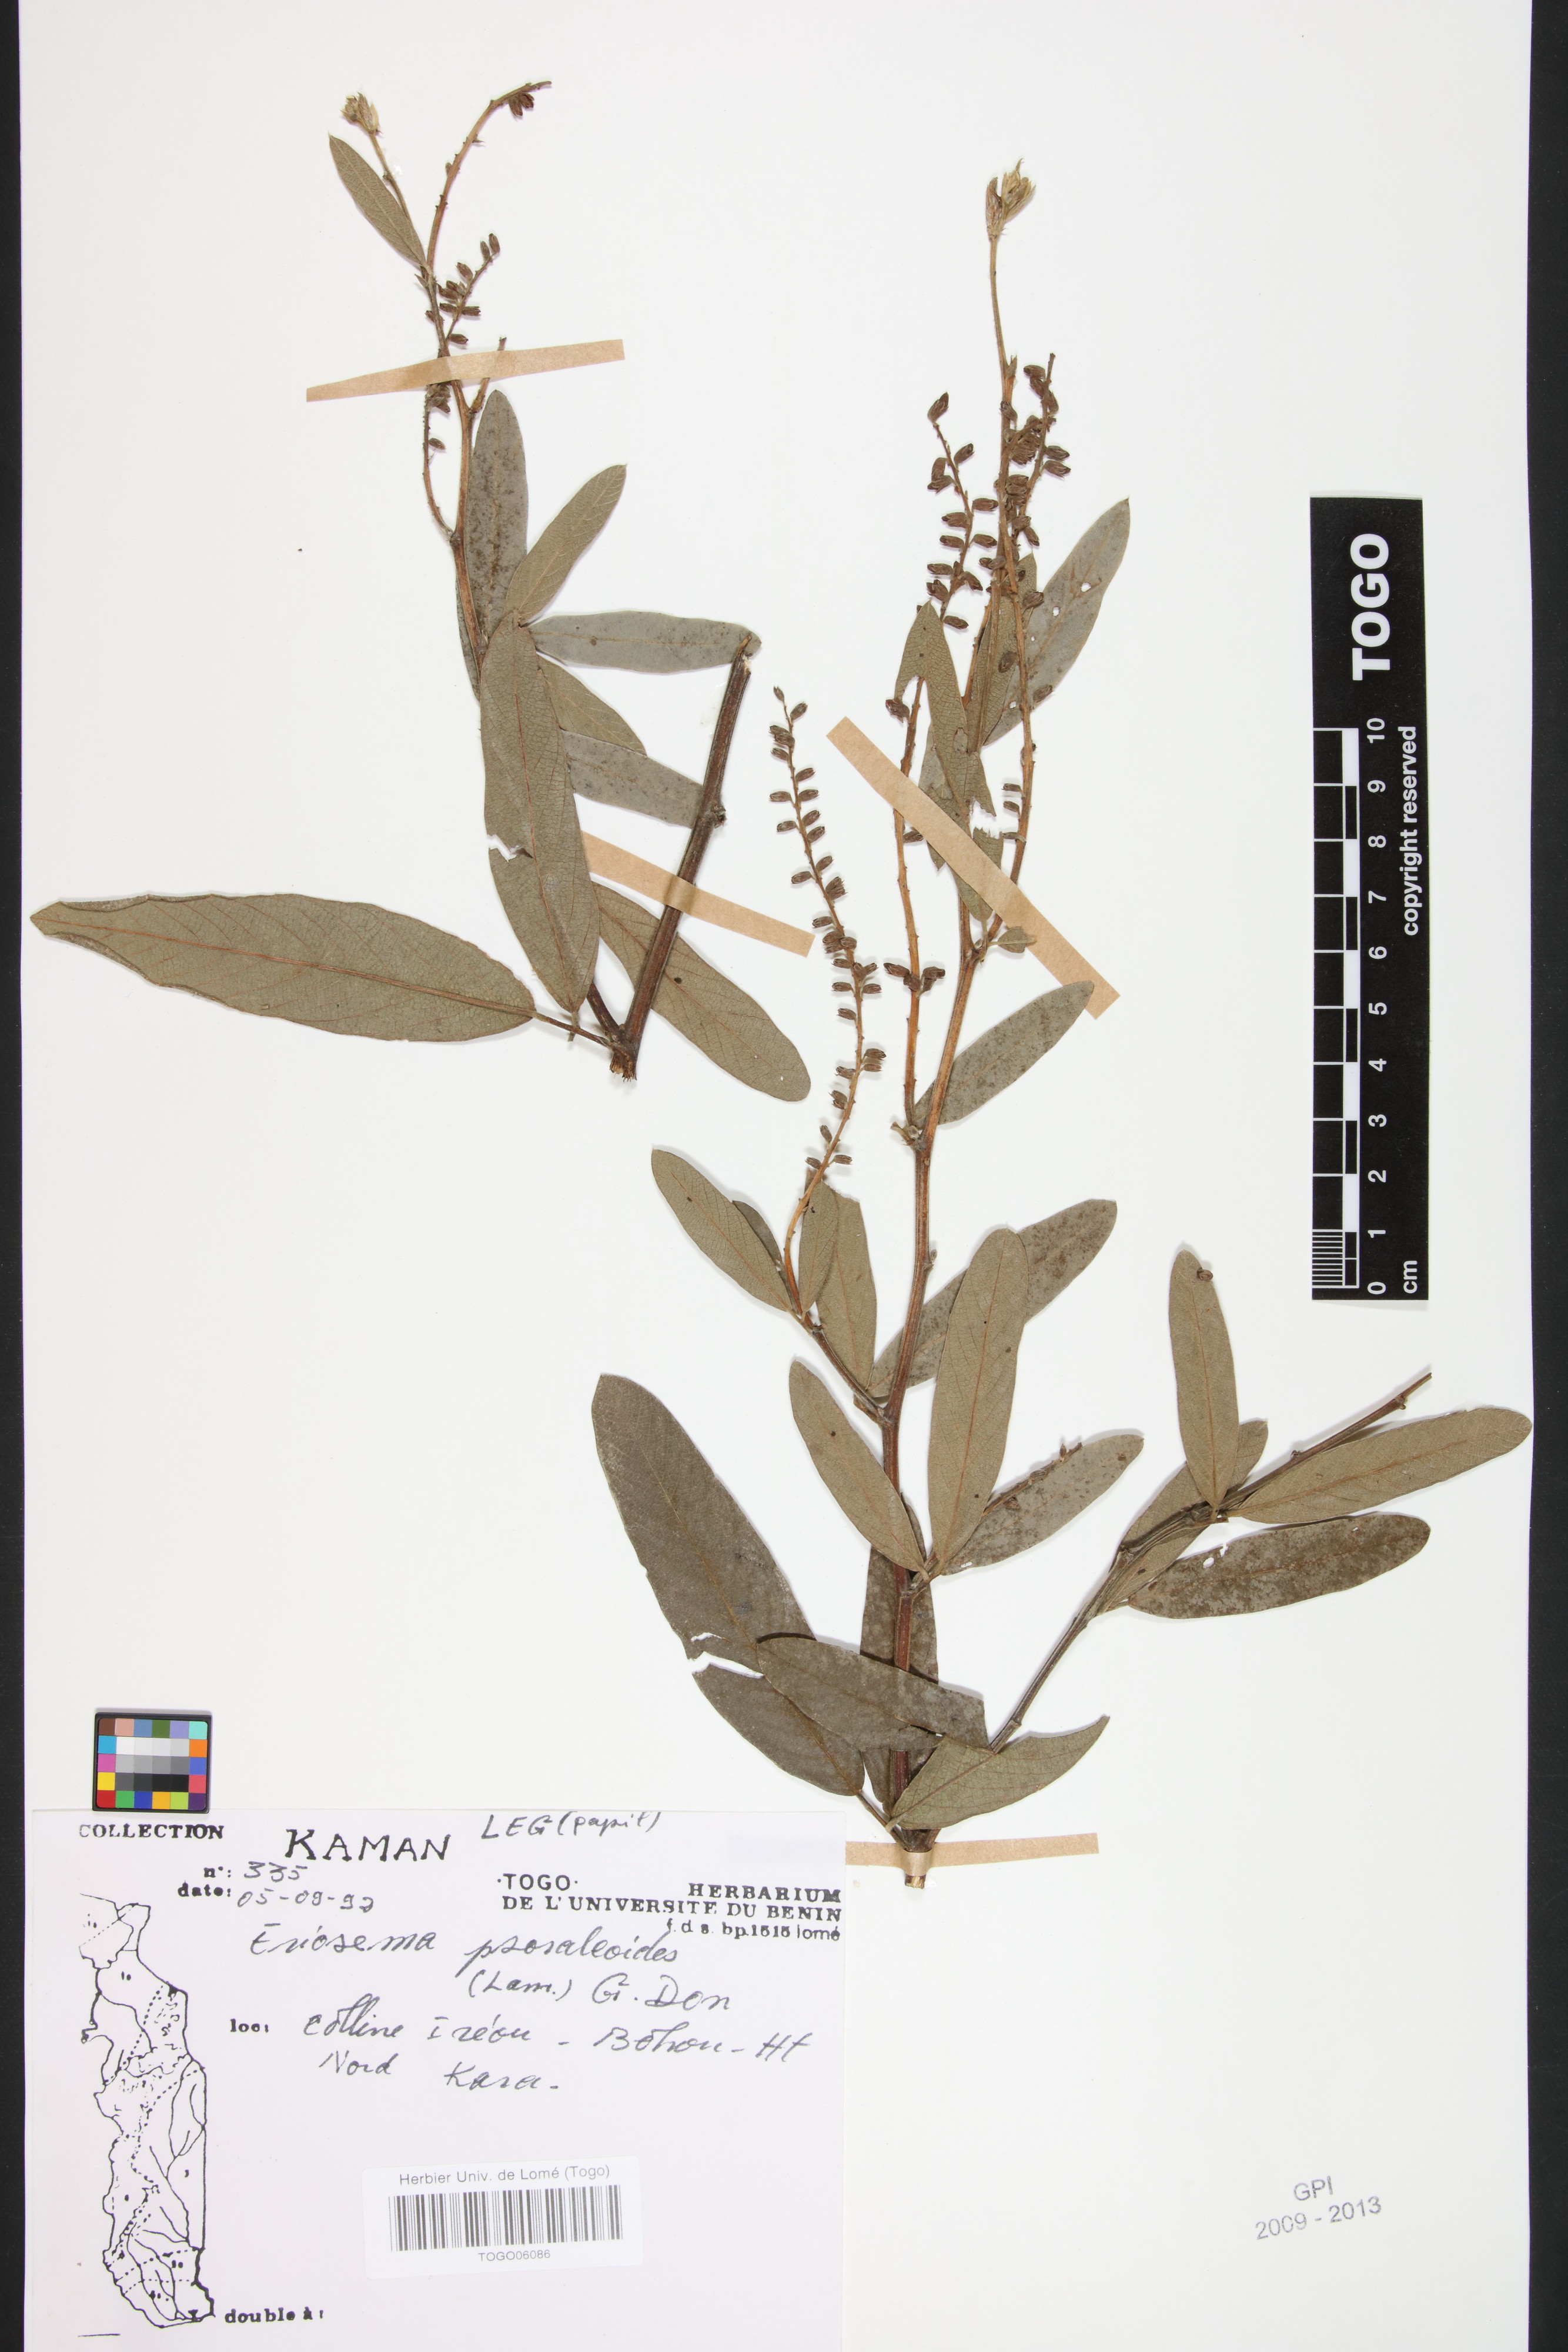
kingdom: Plantae
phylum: Tracheophyta
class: Magnoliopsida
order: Fabales
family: Fabaceae
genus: Eriosema
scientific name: Eriosema psoraleoides
